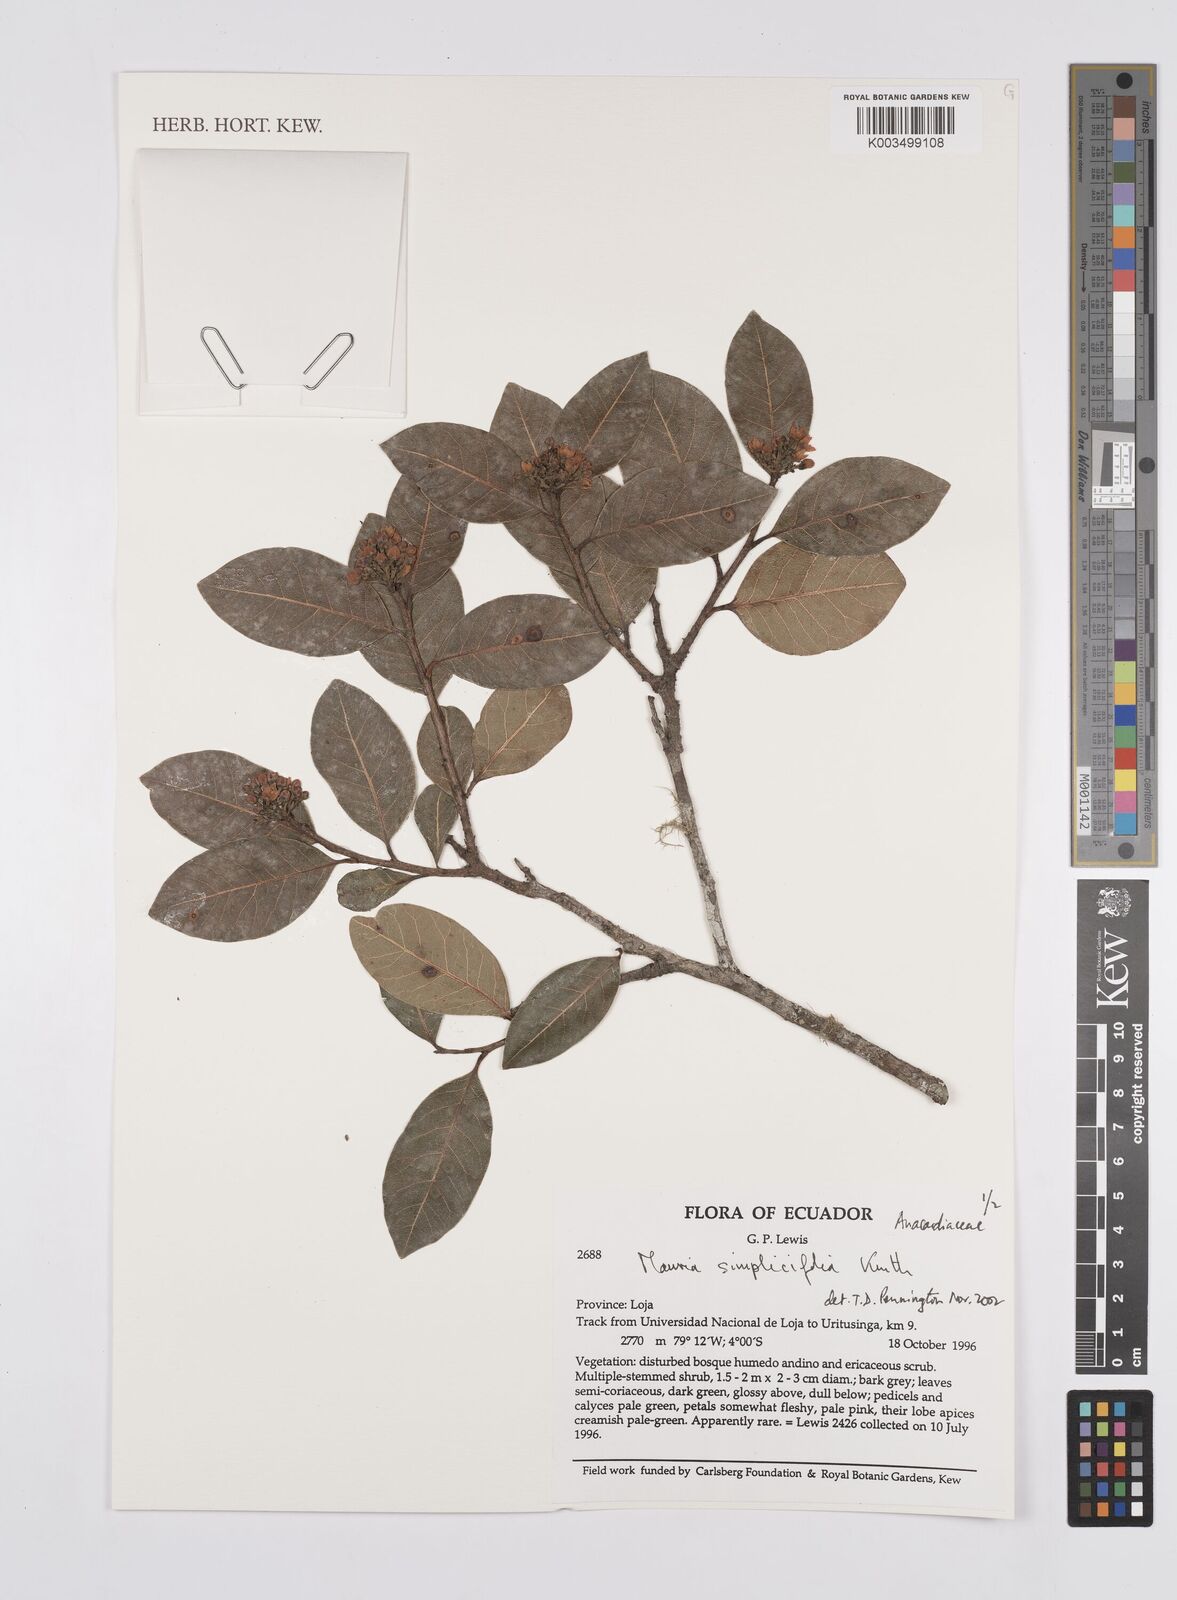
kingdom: Plantae
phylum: Tracheophyta
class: Magnoliopsida
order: Sapindales
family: Anacardiaceae
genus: Mauria
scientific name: Mauria simplicifolia
